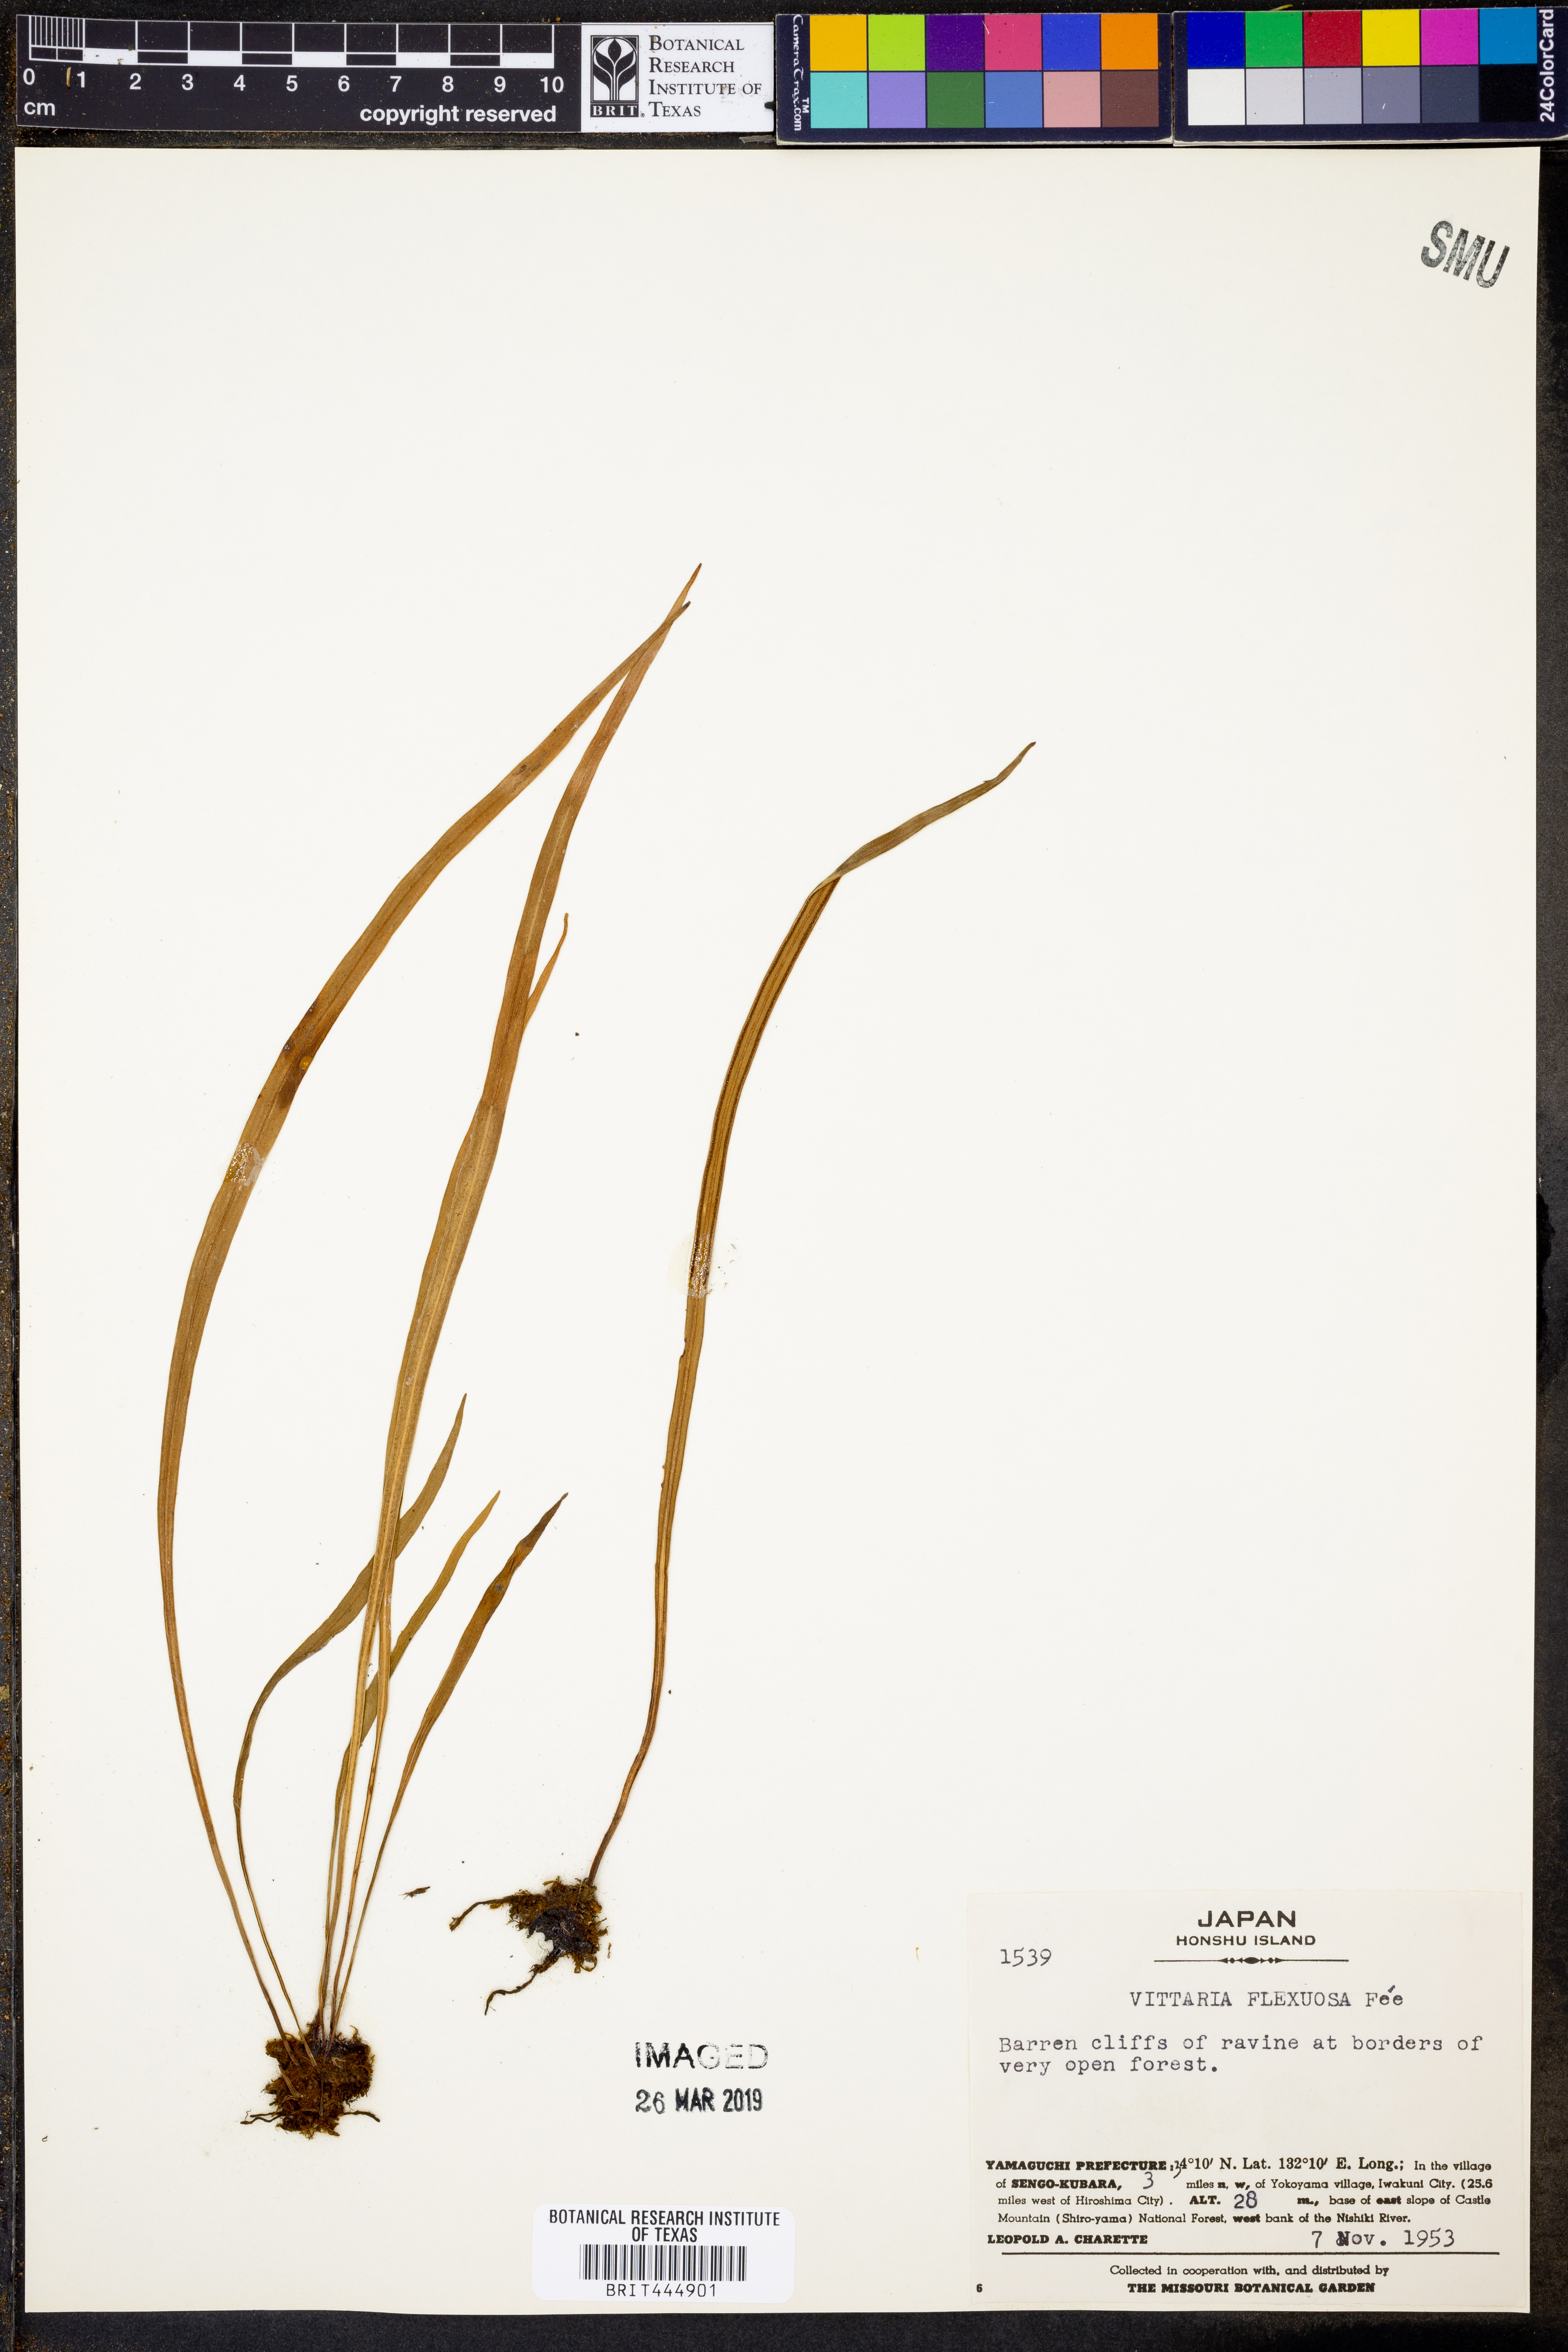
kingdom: Plantae
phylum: Tracheophyta
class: Polypodiopsida
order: Polypodiales
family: Pteridaceae
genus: Haplopteris
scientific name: Haplopteris flexuosa
